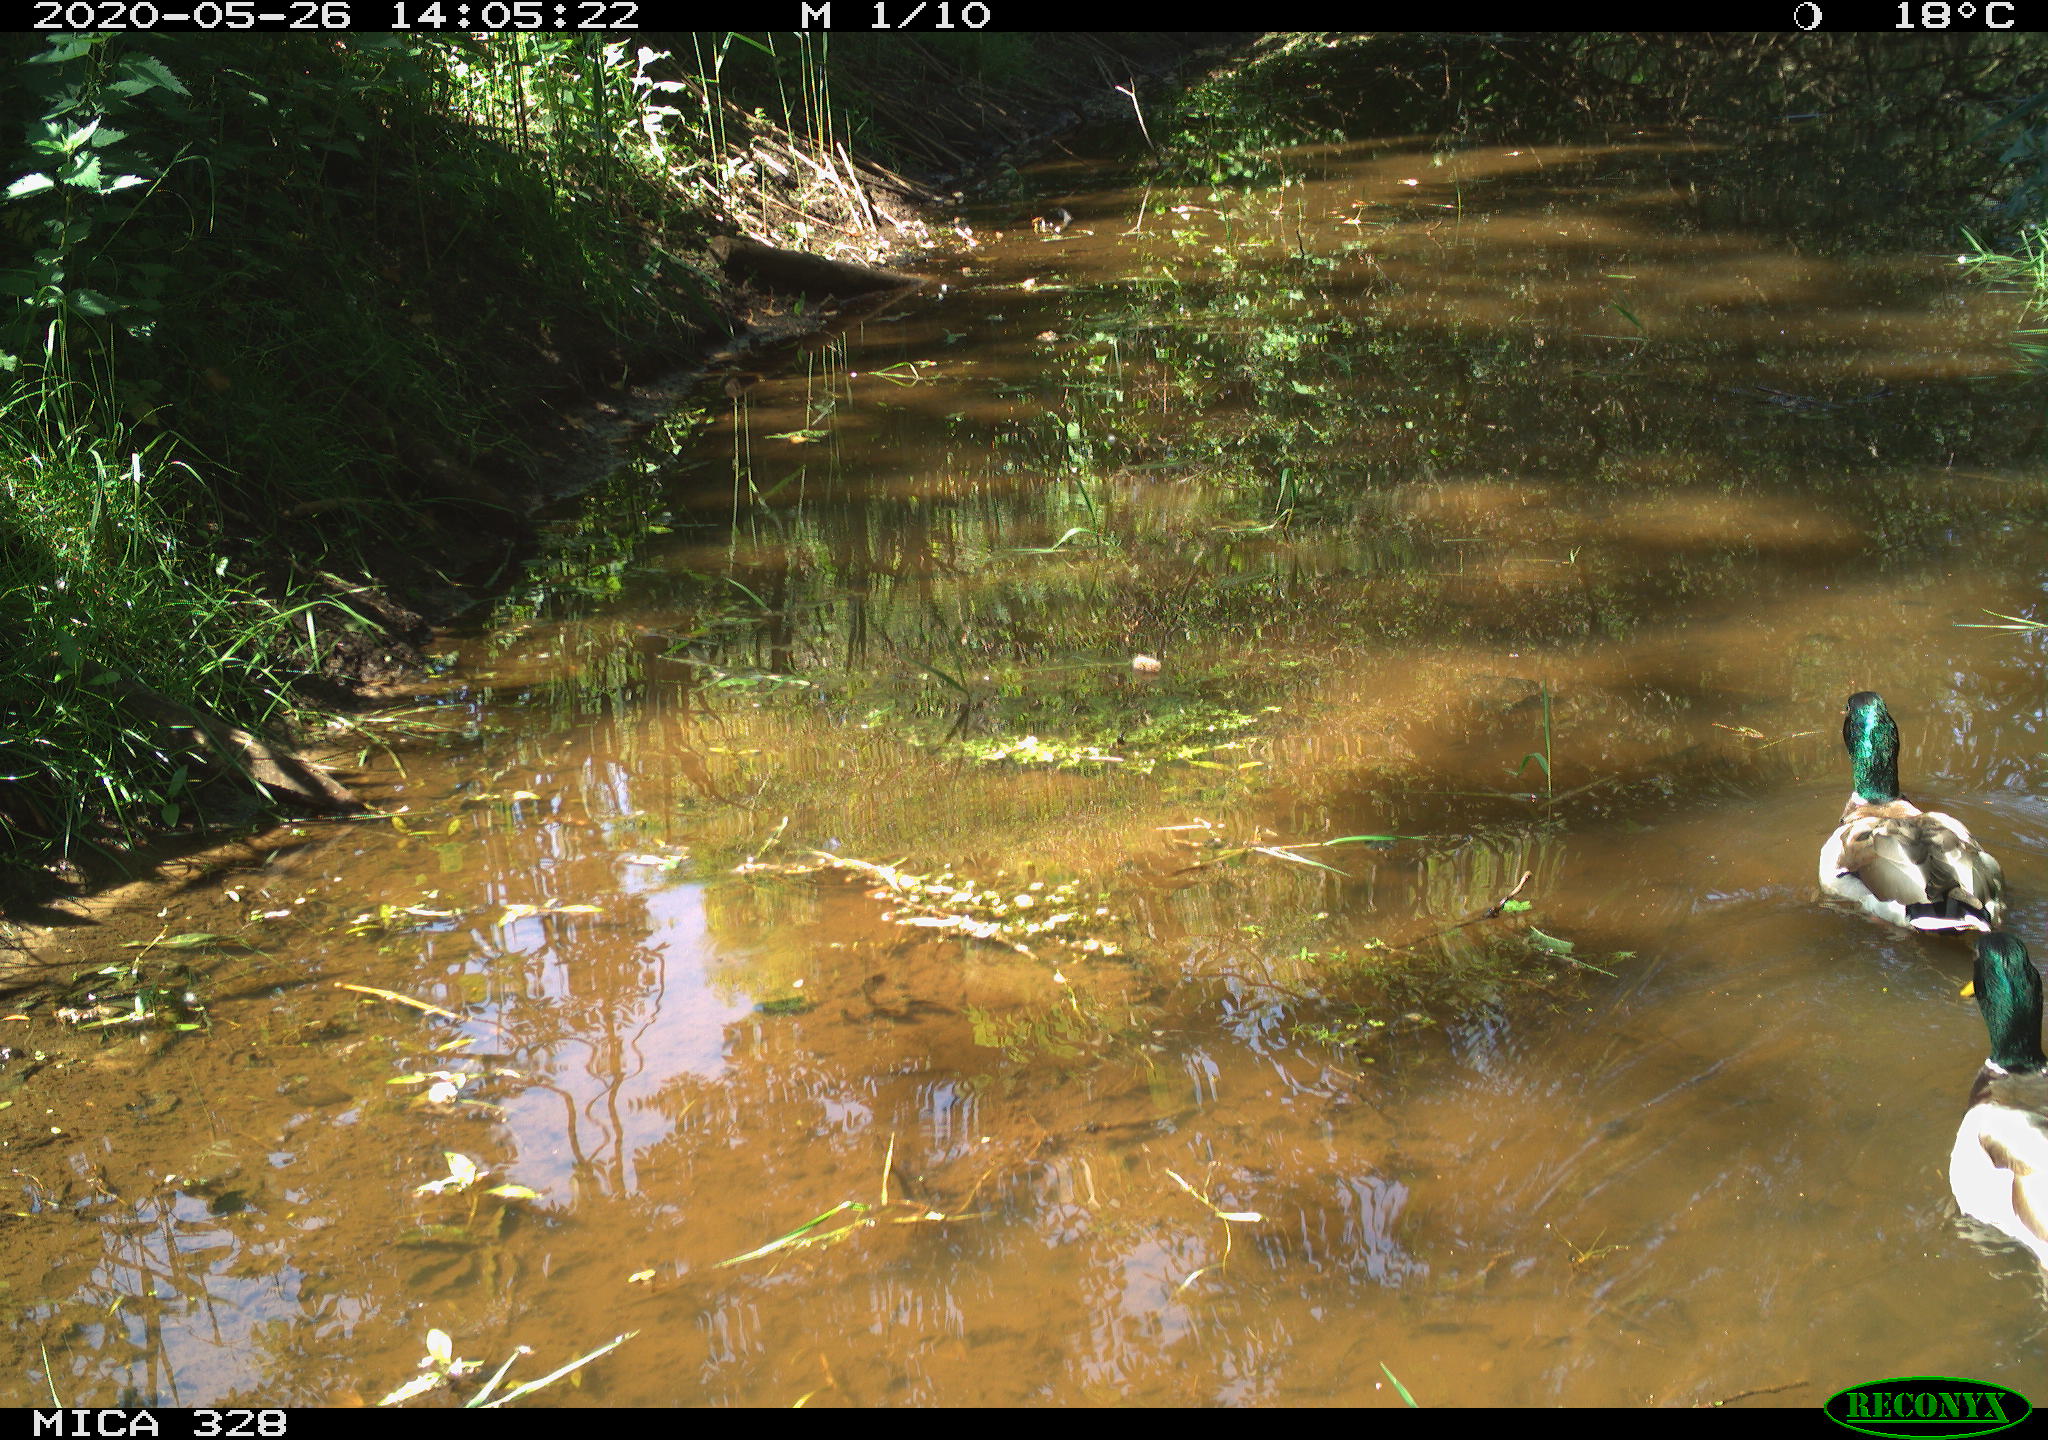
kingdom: Animalia
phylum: Chordata
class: Aves
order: Anseriformes
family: Anatidae
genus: Anas
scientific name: Anas platyrhynchos
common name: Mallard
